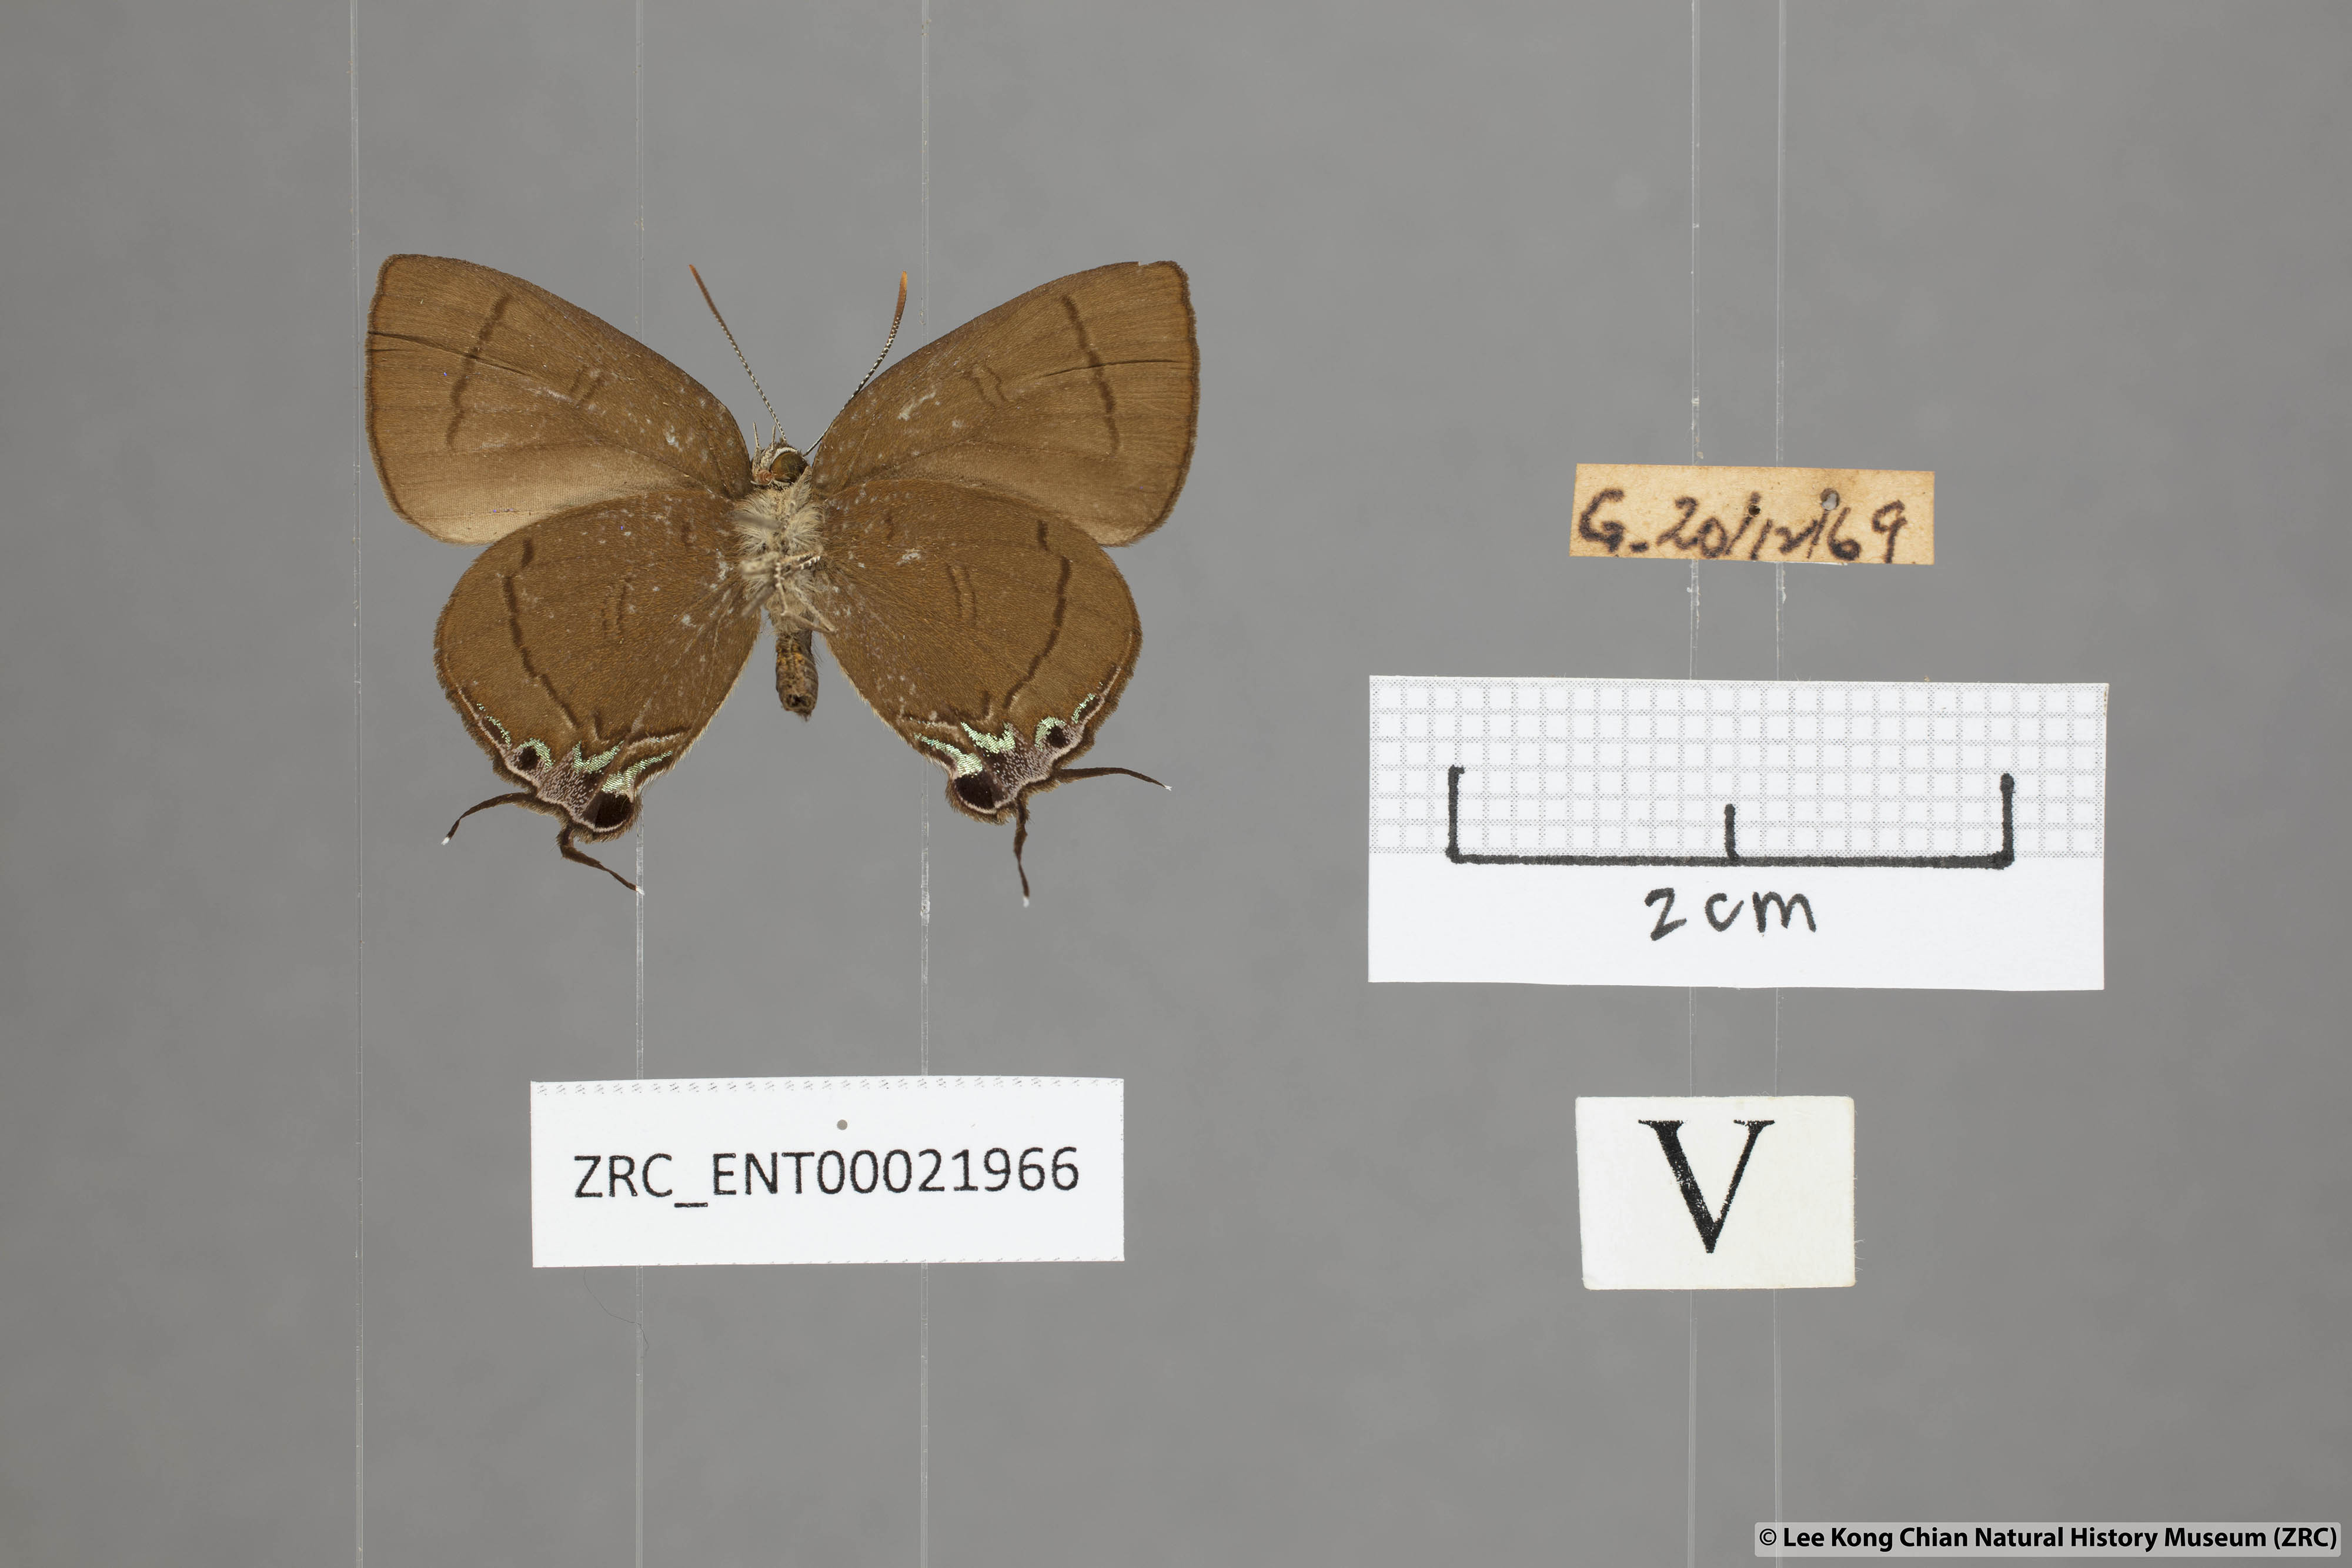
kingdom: Animalia
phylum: Arthropoda
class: Insecta
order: Lepidoptera
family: Lycaenidae
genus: Remelana
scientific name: Remelana jangala
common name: Chocolate royal
